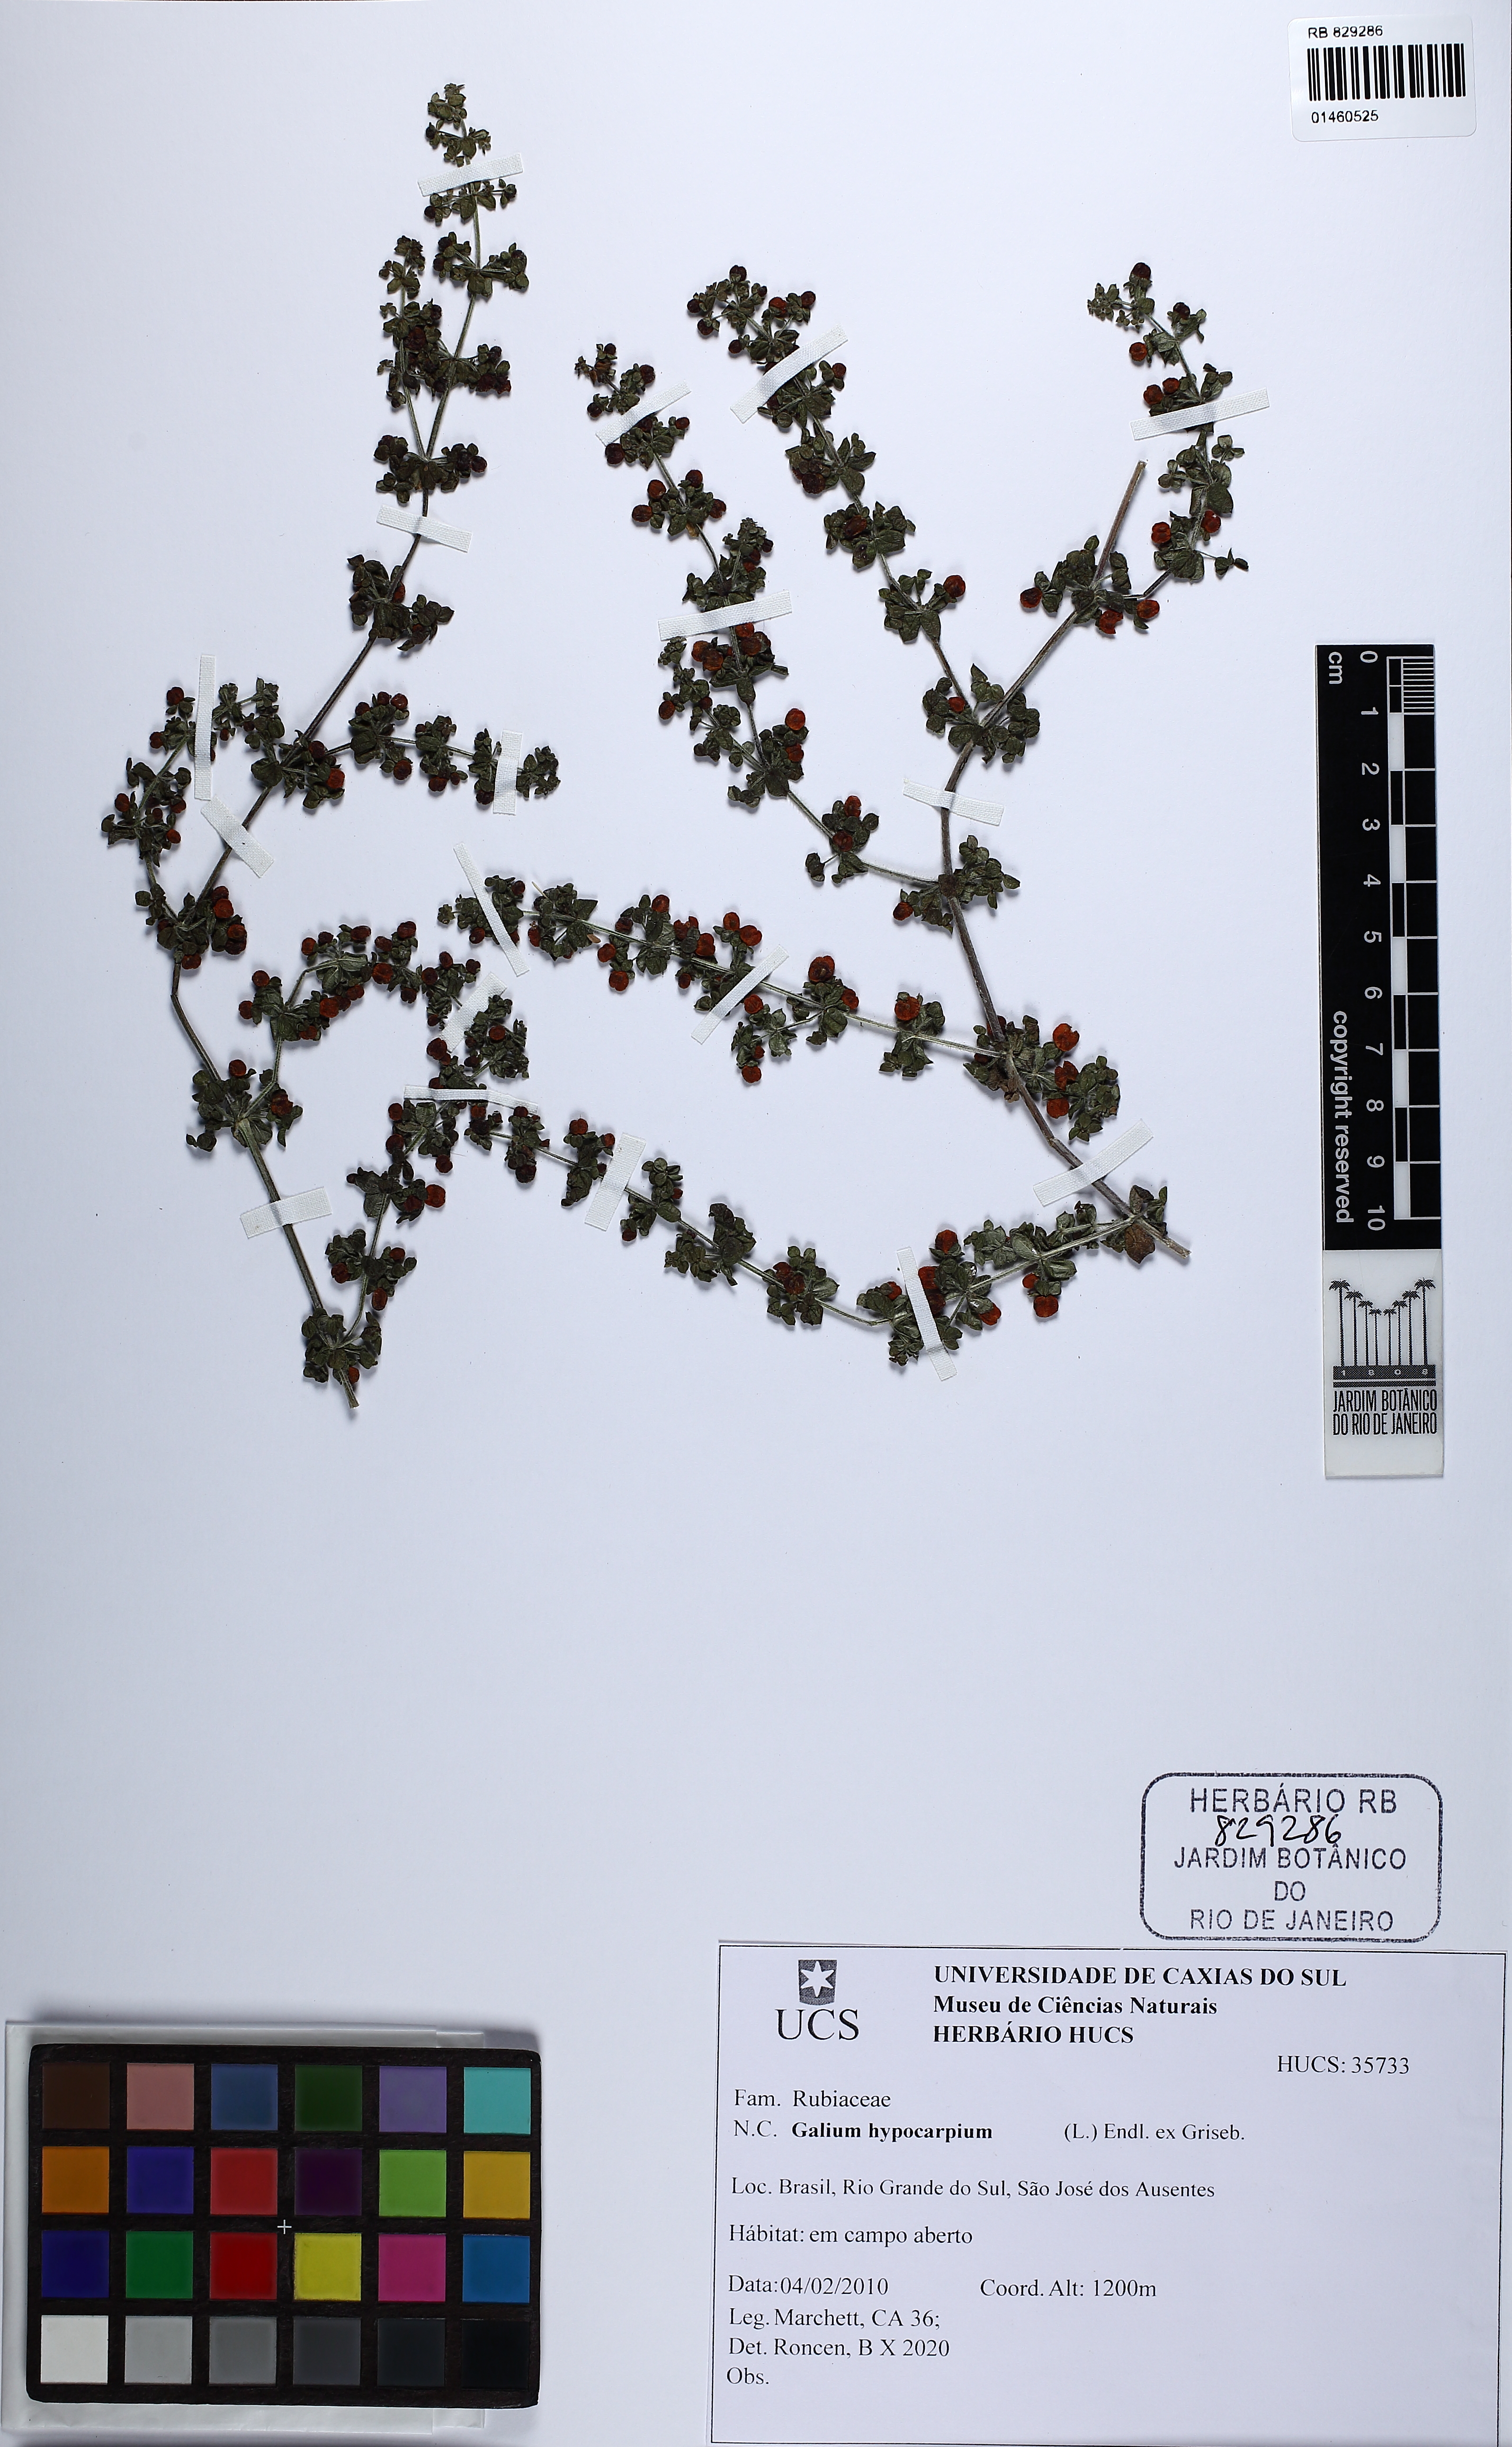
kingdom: Plantae
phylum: Tracheophyta
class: Magnoliopsida
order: Gentianales
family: Rubiaceae
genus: Galium
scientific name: Galium hypocarpium
